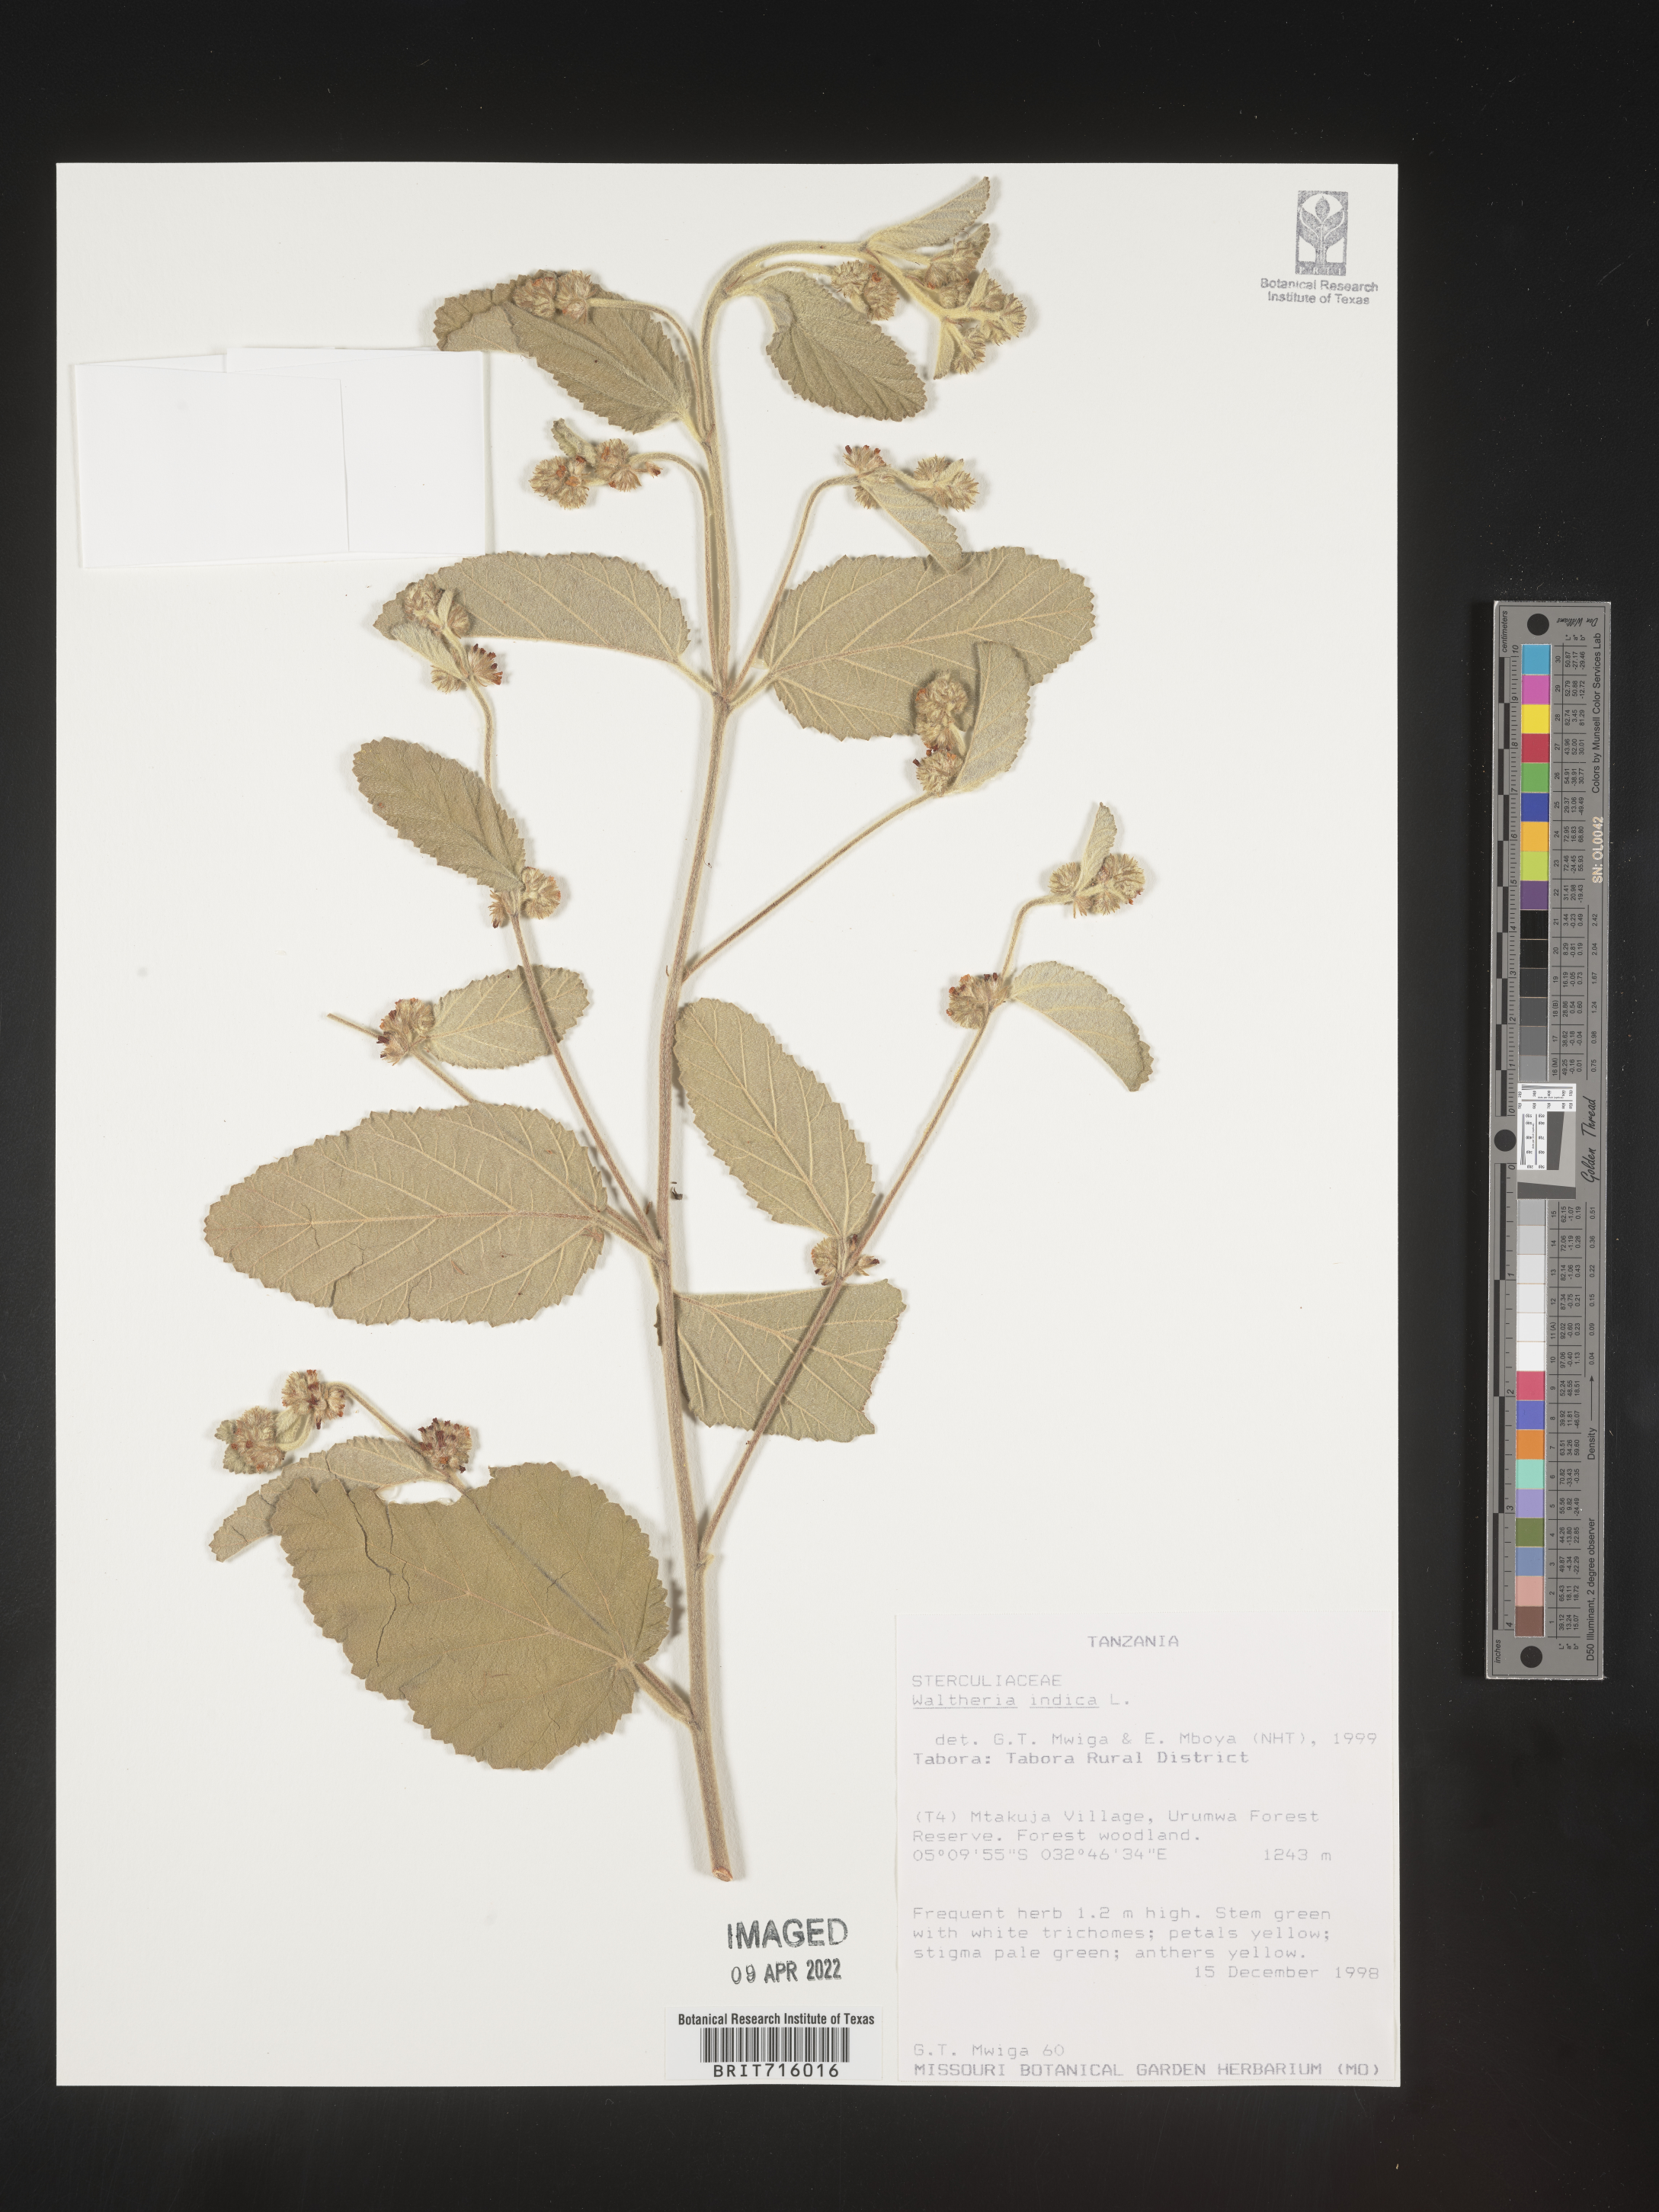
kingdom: Plantae
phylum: Tracheophyta
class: Magnoliopsida
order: Malvales
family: Malvaceae
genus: Waltheria
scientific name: Waltheria
